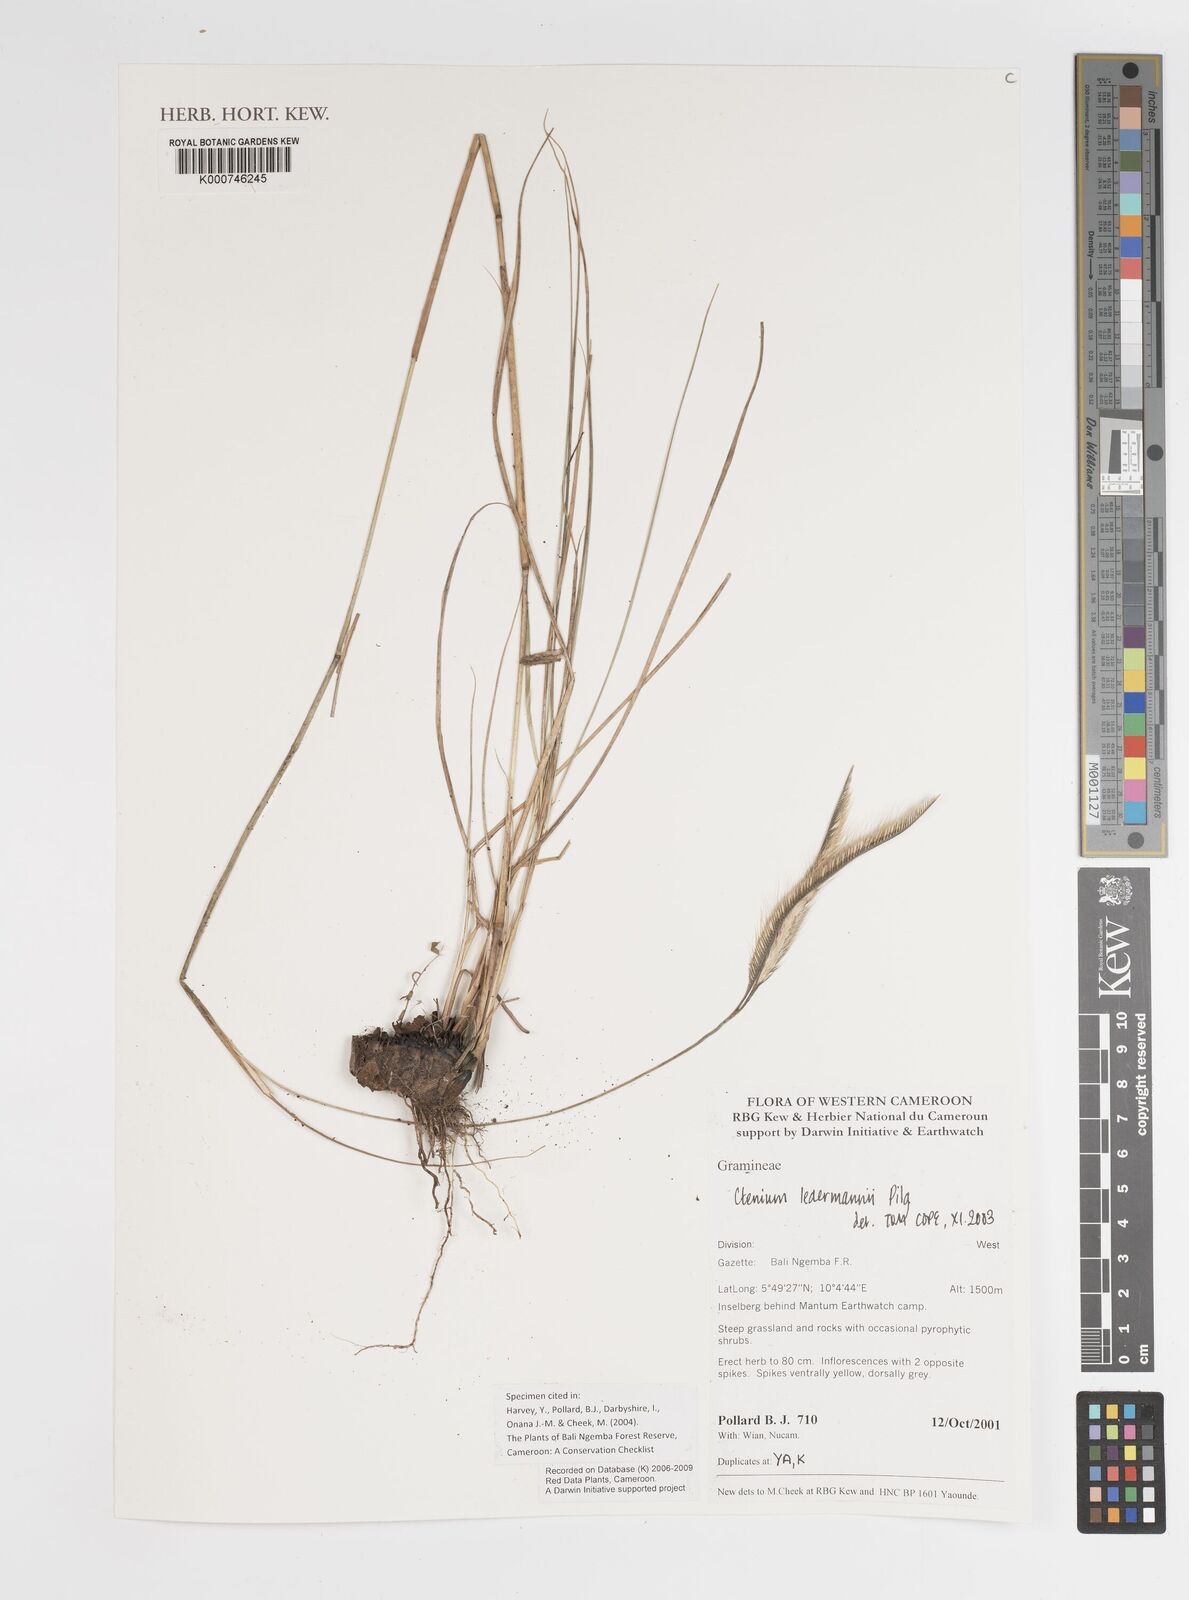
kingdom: Plantae
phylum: Tracheophyta
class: Liliopsida
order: Poales
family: Poaceae
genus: Ctenium
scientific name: Ctenium ledermannii
